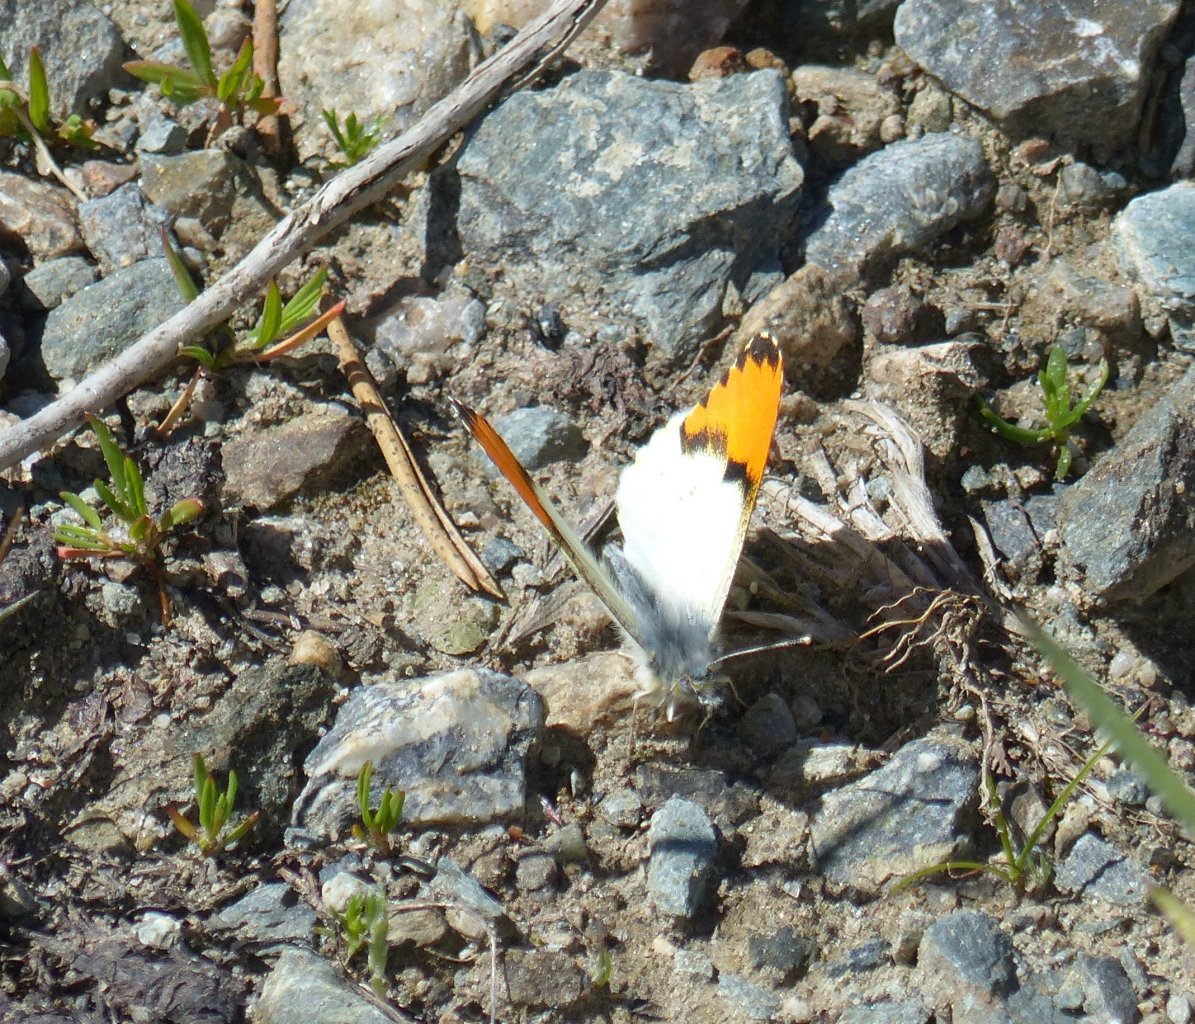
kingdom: Animalia
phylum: Arthropoda
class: Insecta
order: Lepidoptera
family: Pieridae
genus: Anthocharis
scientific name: Anthocharis sara
